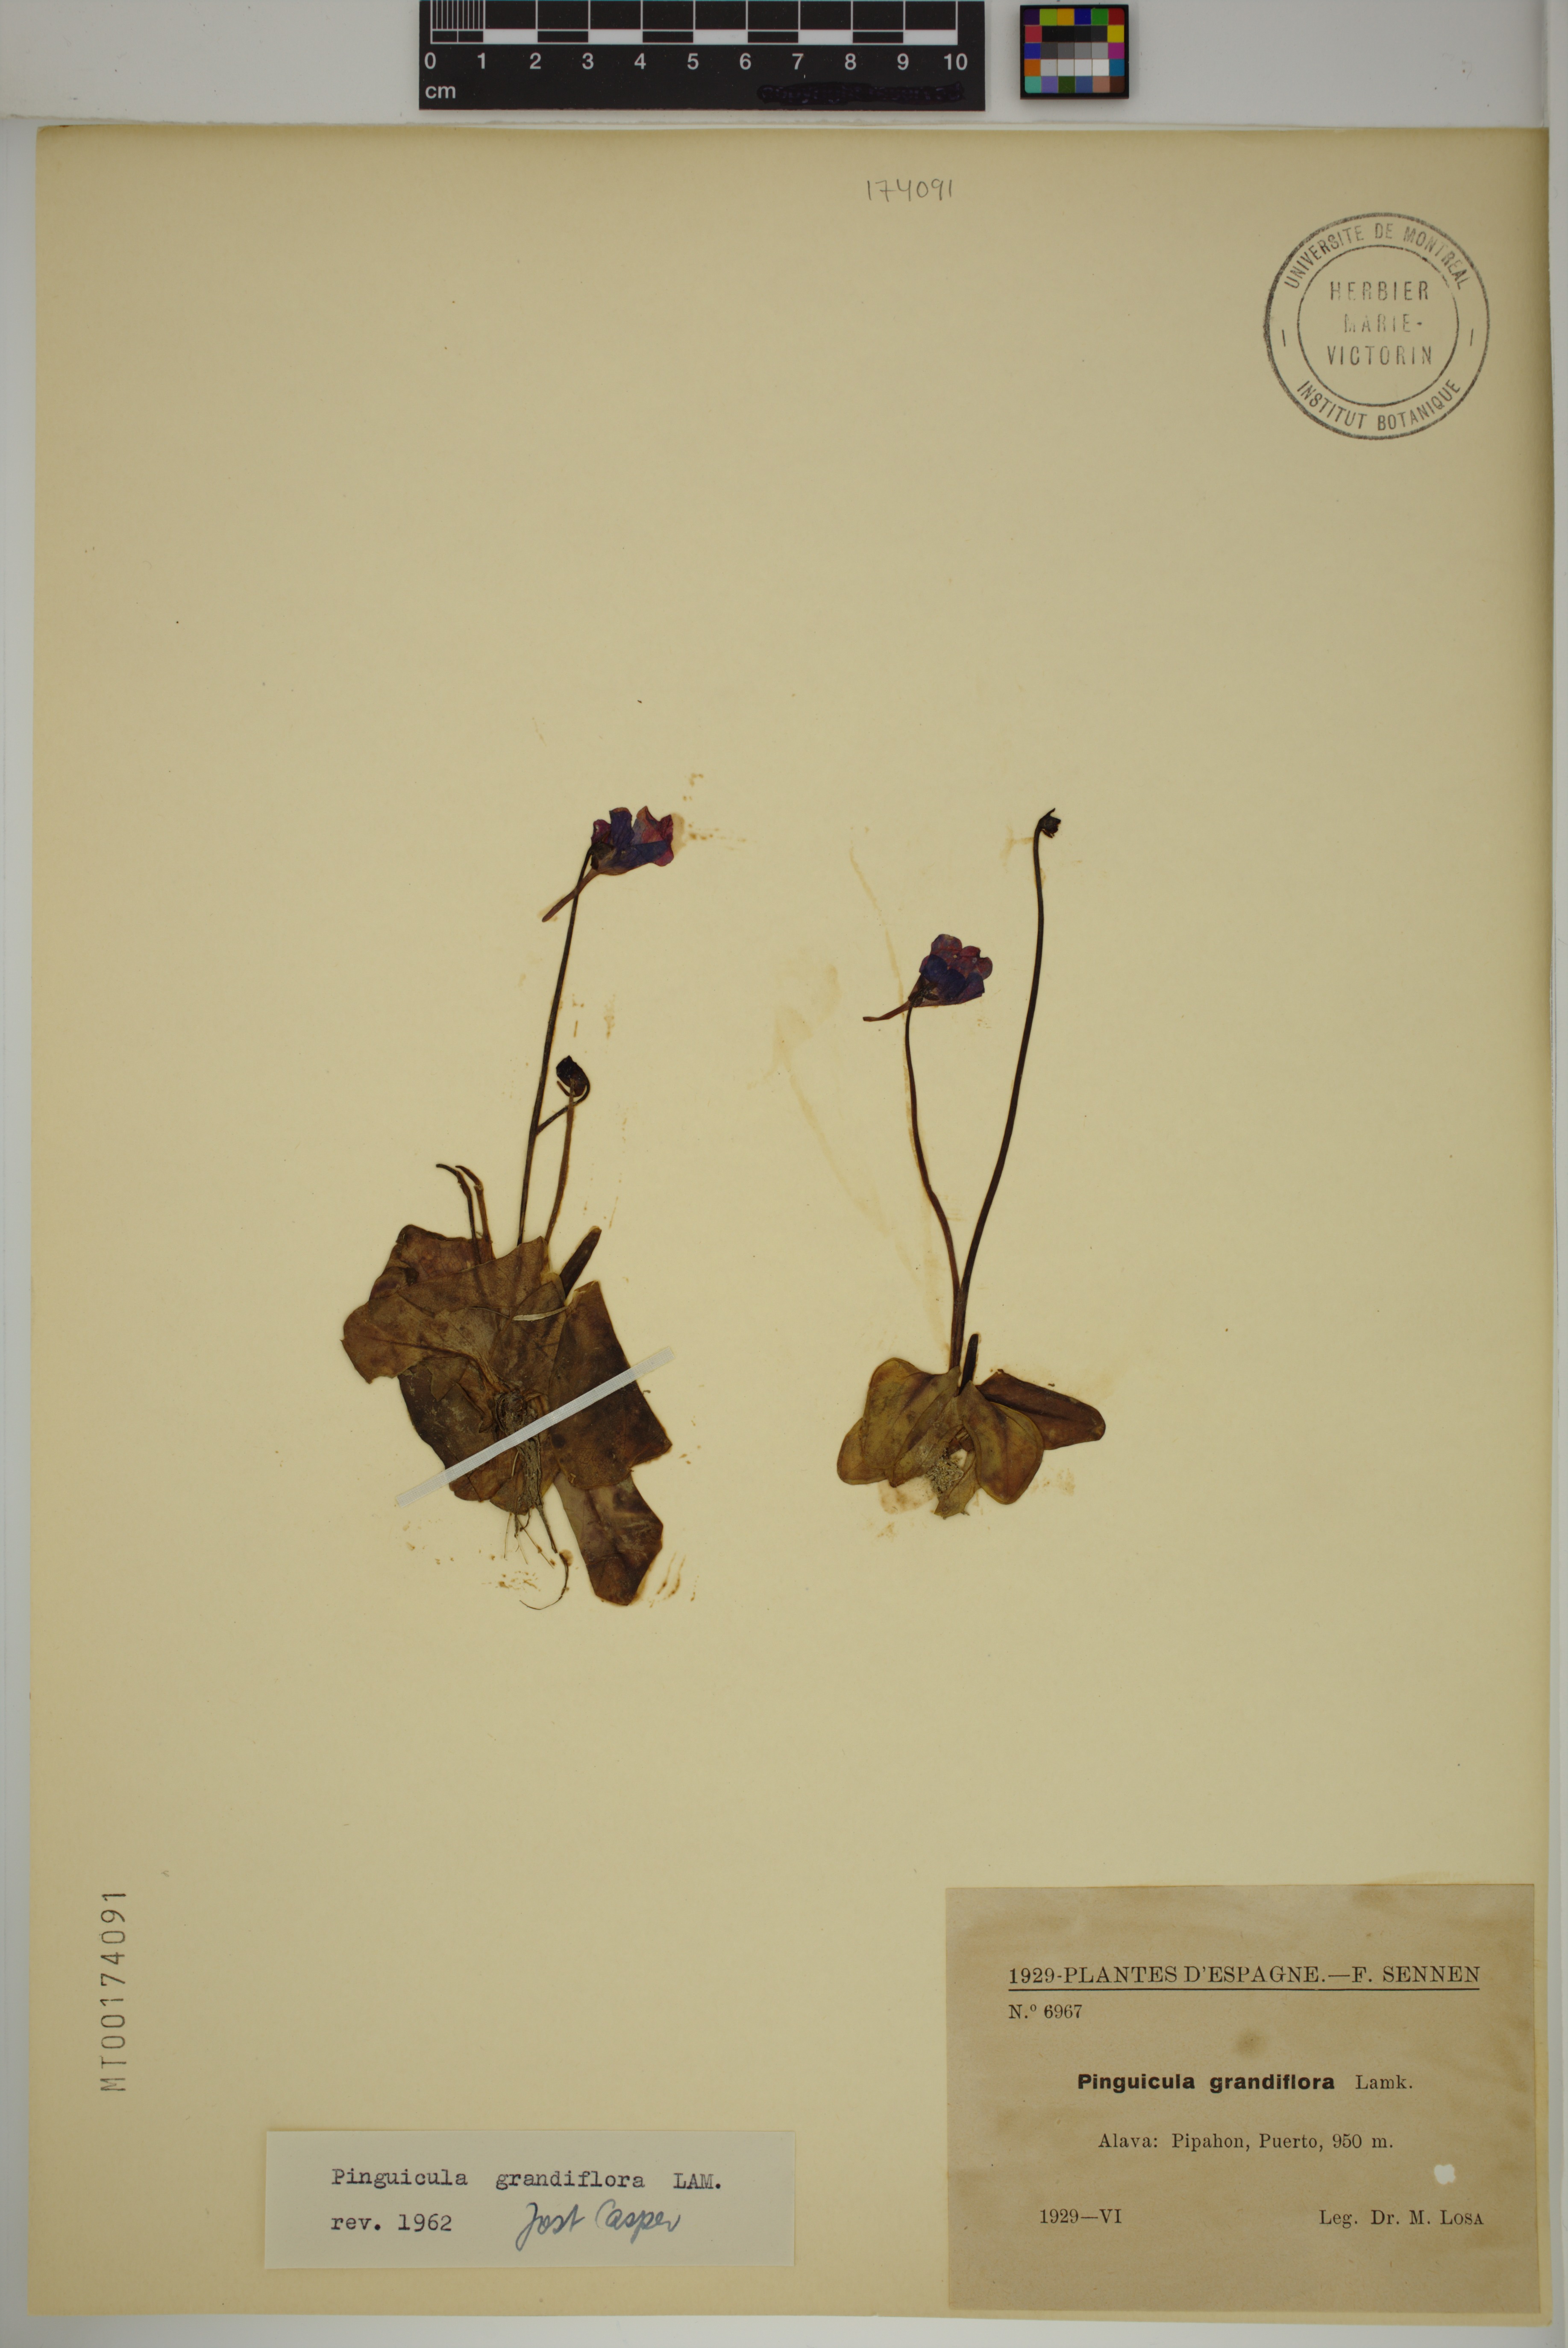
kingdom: Plantae
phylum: Tracheophyta
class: Magnoliopsida
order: Lamiales
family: Lentibulariaceae
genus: Pinguicula
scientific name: Pinguicula grandiflora
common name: Large-flowered butterwort
